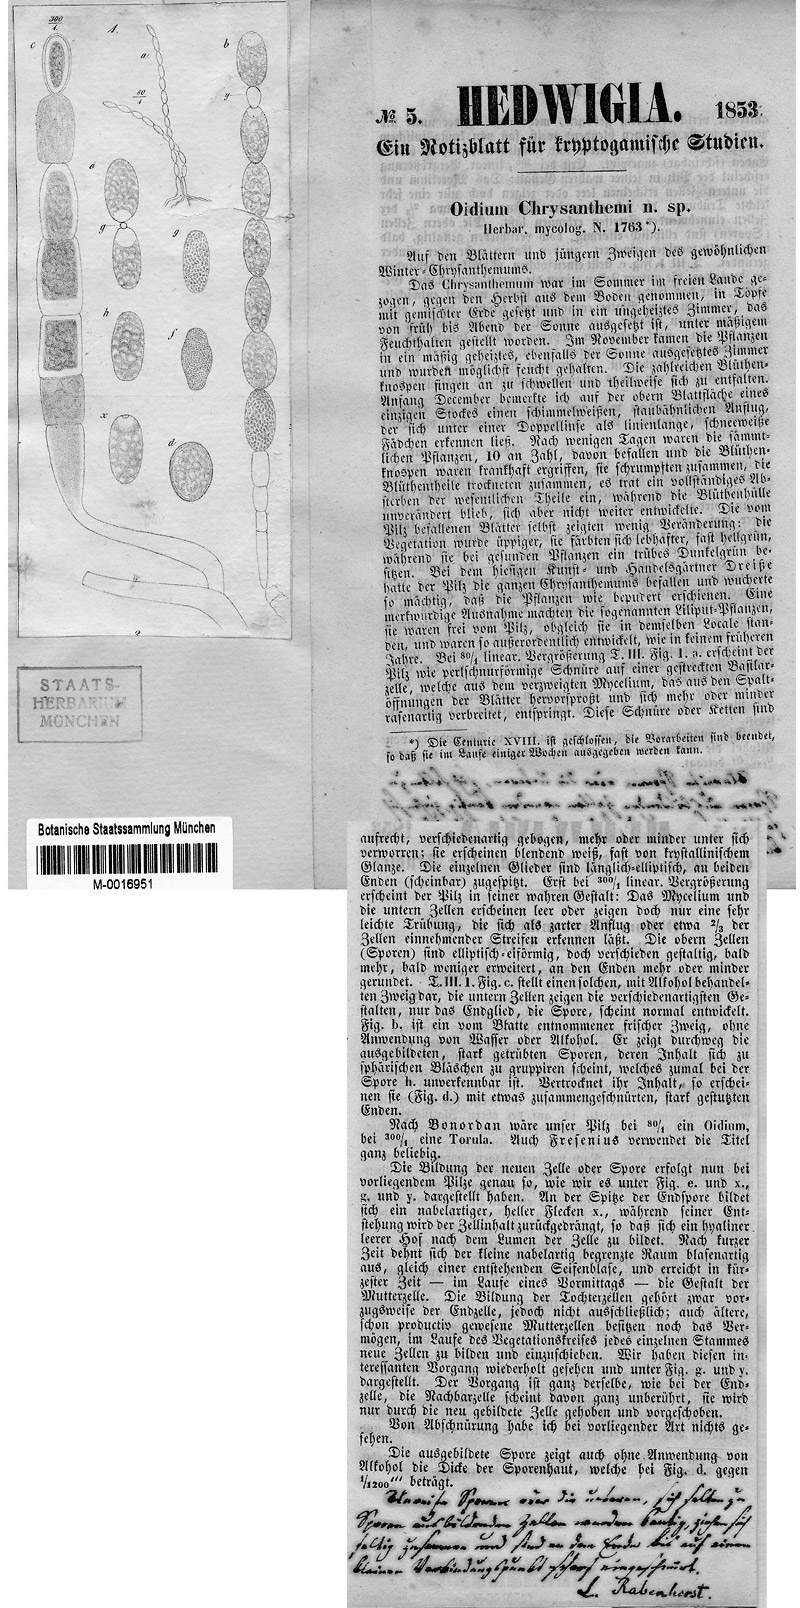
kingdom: Fungi
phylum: Ascomycota
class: Leotiomycetes
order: Helotiales
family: Erysiphaceae
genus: Golovinomyces
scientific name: Golovinomyces chrysanthemi
